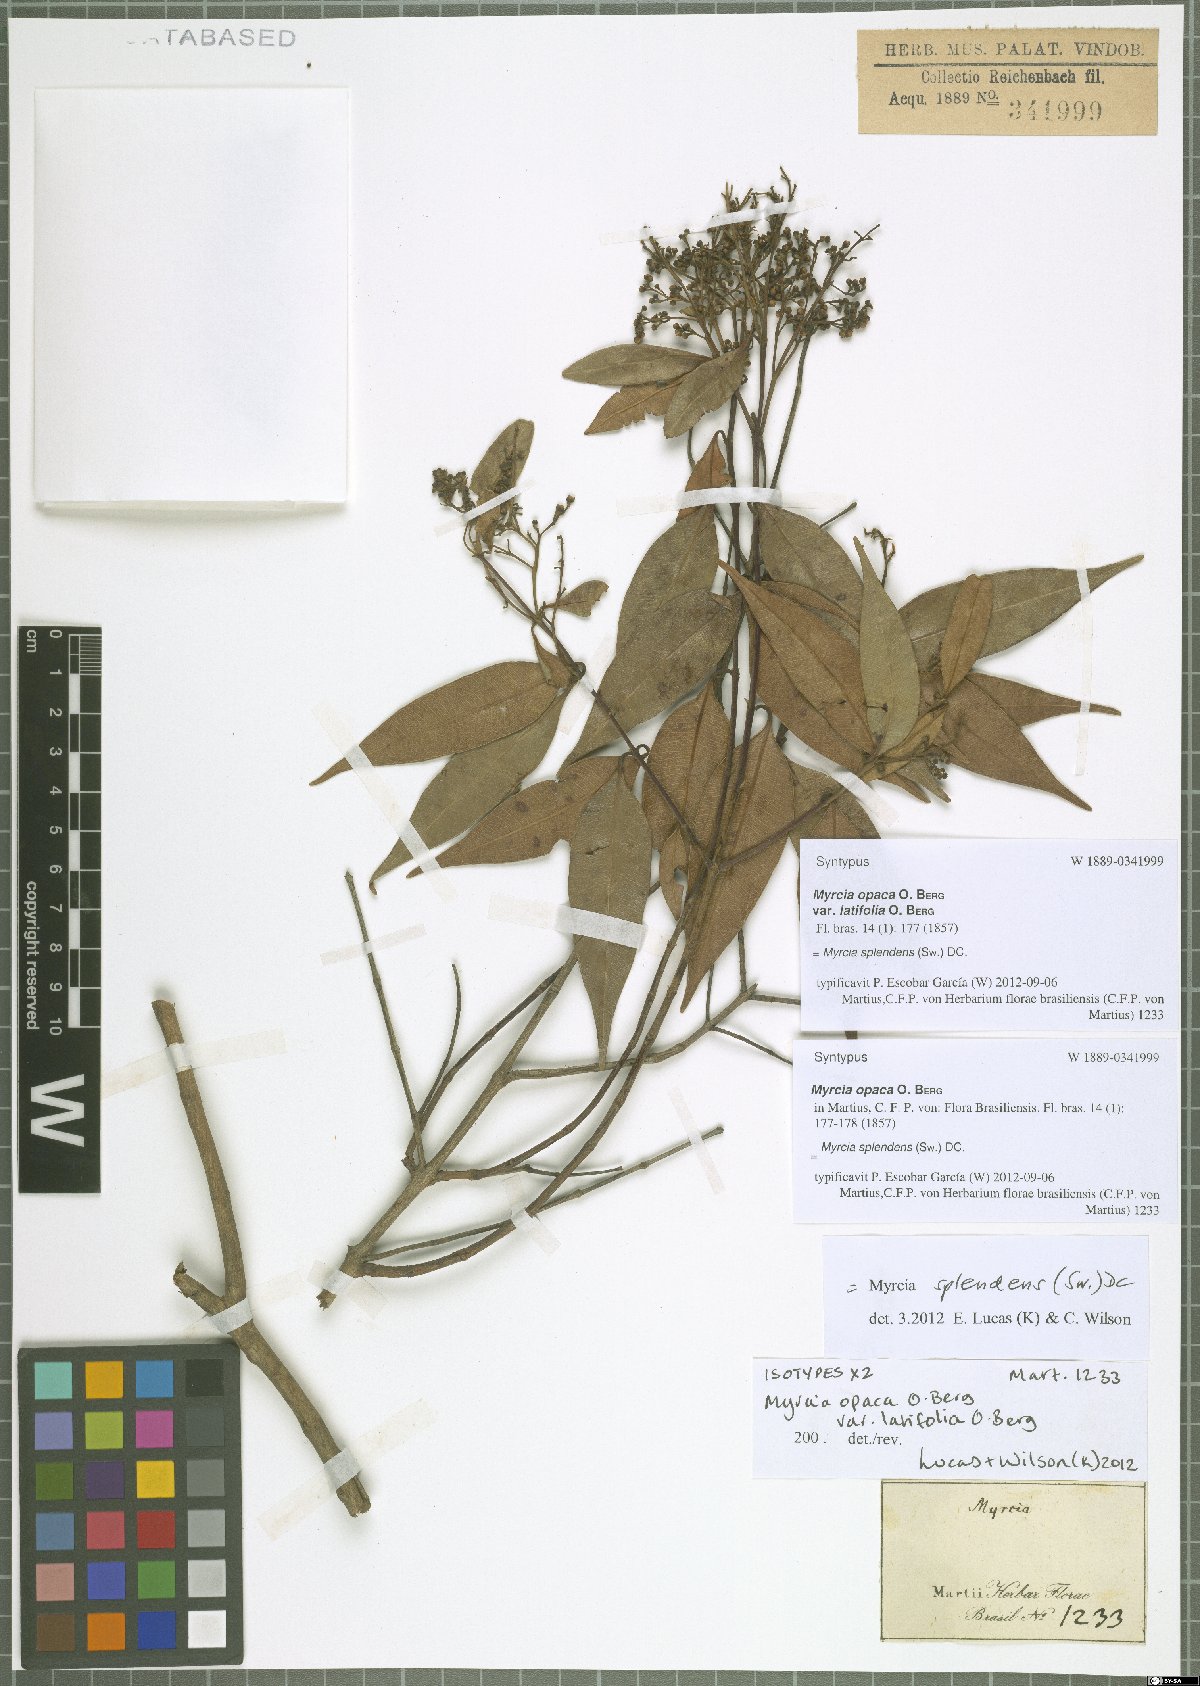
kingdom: Plantae
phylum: Tracheophyta
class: Magnoliopsida
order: Myrtales
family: Myrtaceae
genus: Myrcia
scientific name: Myrcia splendens
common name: Surinam cherry
